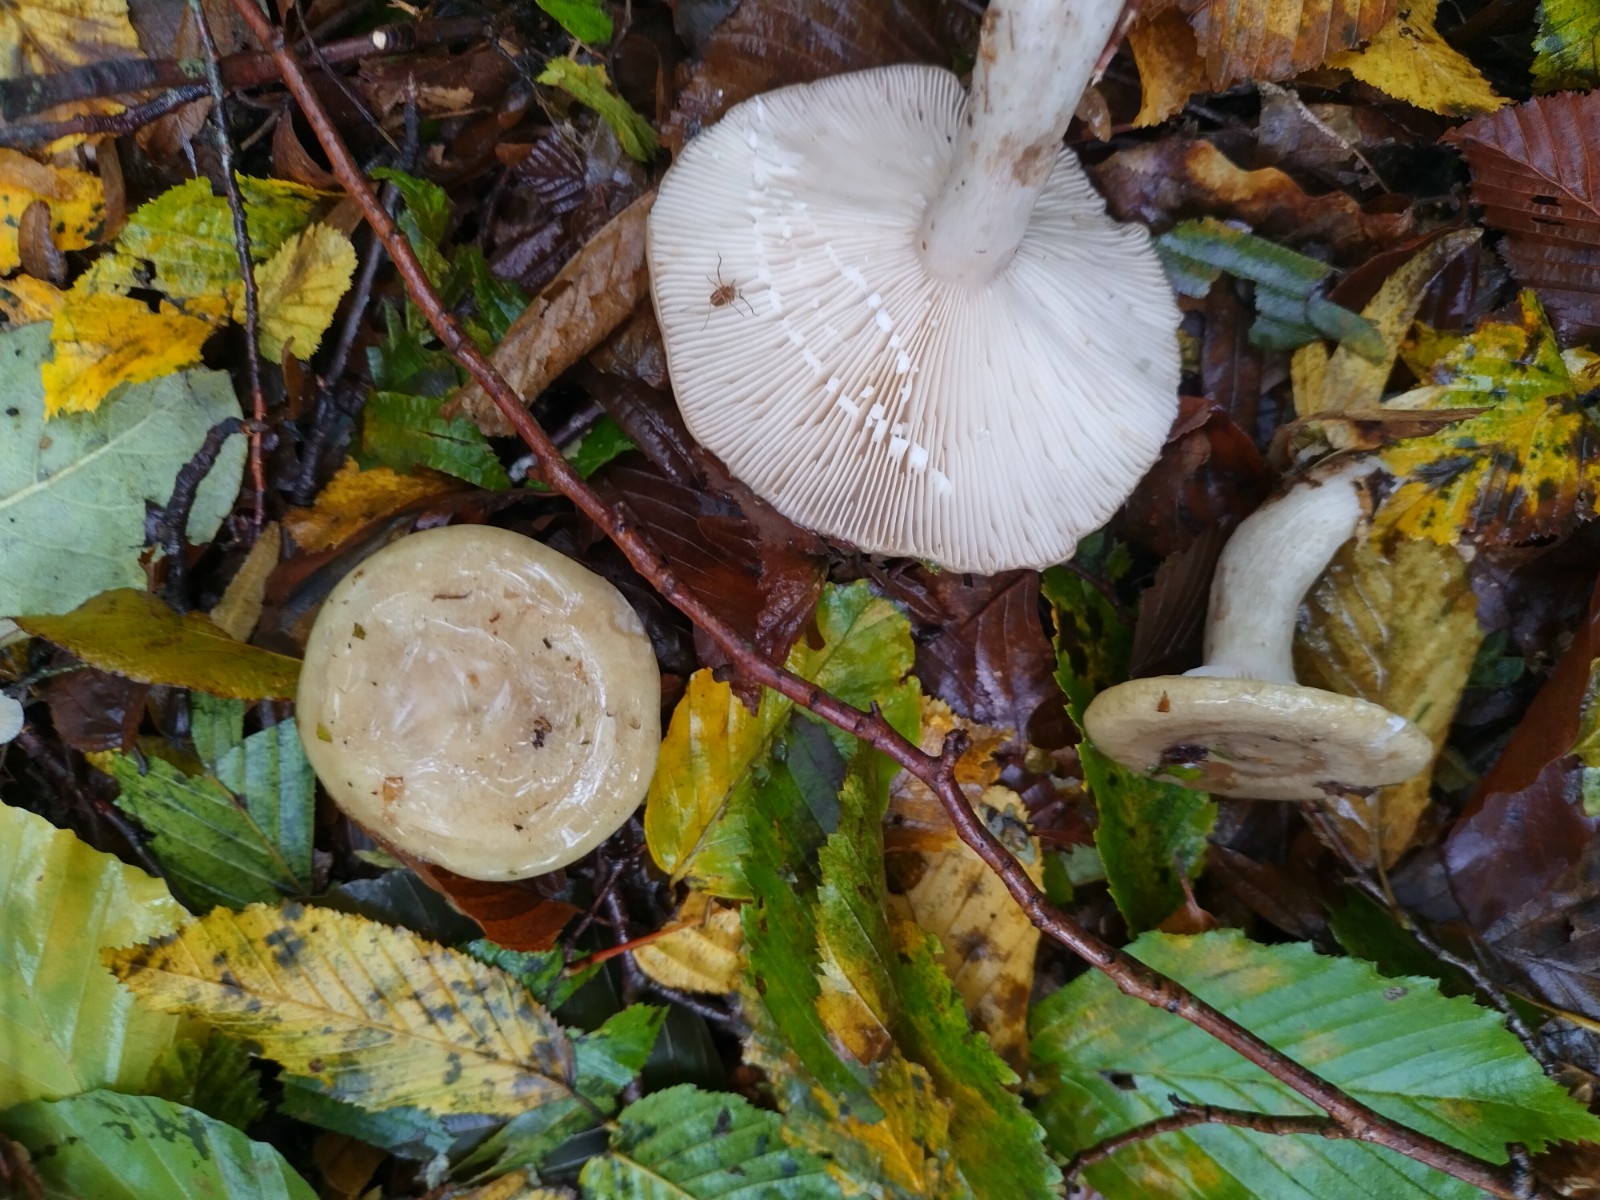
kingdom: Fungi
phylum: Basidiomycota
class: Agaricomycetes
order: Russulales
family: Russulaceae
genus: Lactarius
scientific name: Lactarius blennius
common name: dråbeplettet mælkehat
